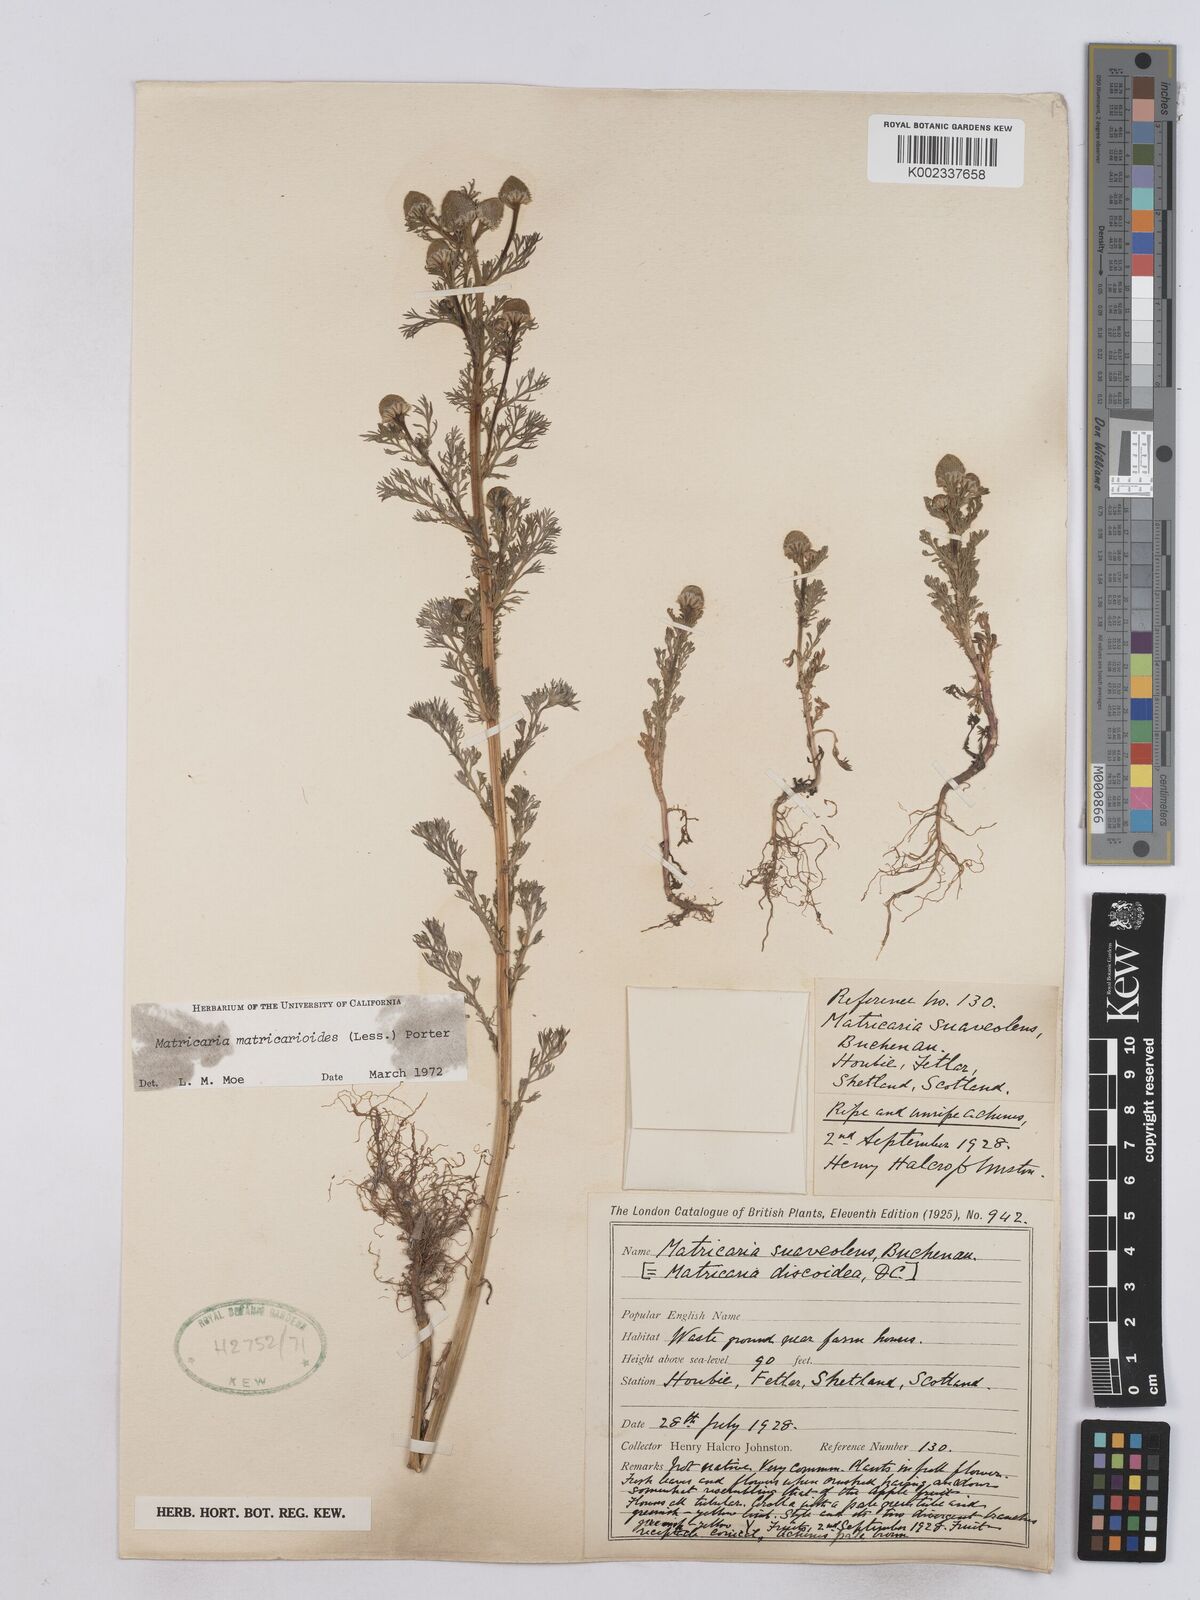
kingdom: Plantae
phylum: Tracheophyta
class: Magnoliopsida
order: Asterales
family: Asteraceae
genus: Matricaria
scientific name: Matricaria discoidea
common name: Disc mayweed
